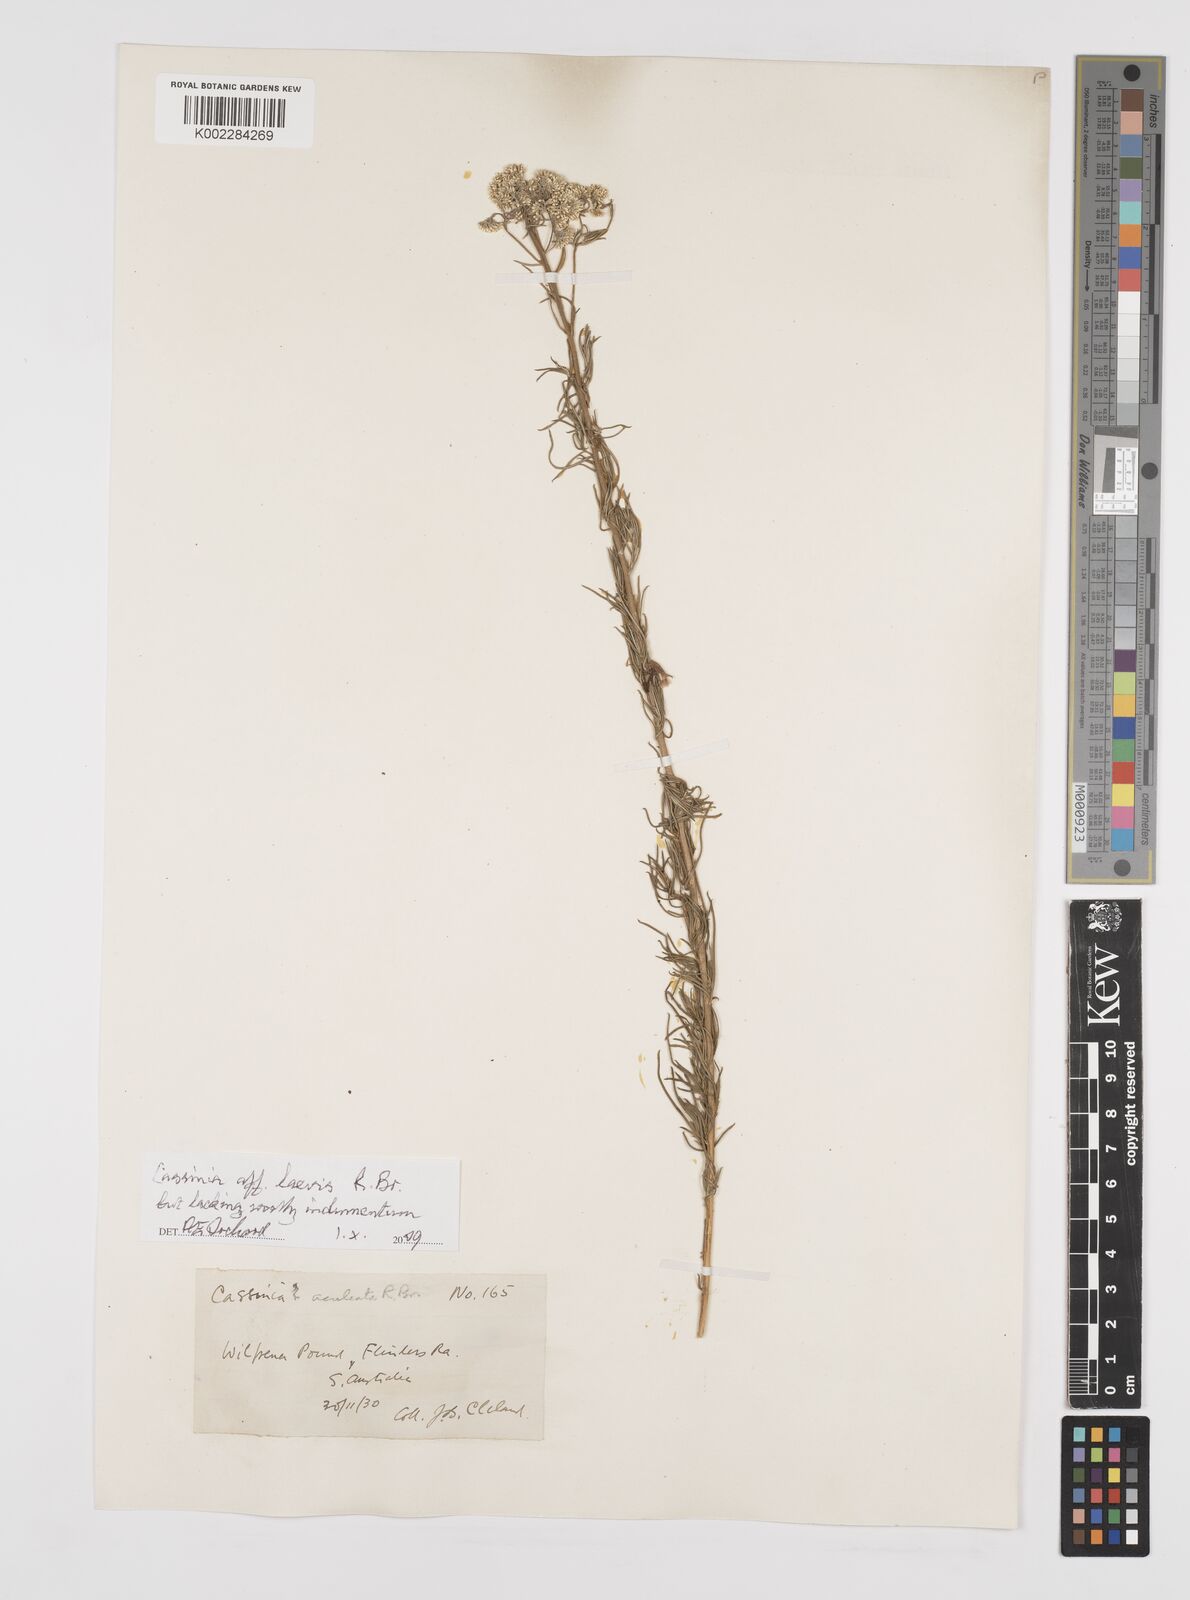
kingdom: Plantae
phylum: Tracheophyta
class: Magnoliopsida
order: Asterales
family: Asteraceae
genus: Cassinia
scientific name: Cassinia laevis
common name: Coughbush
